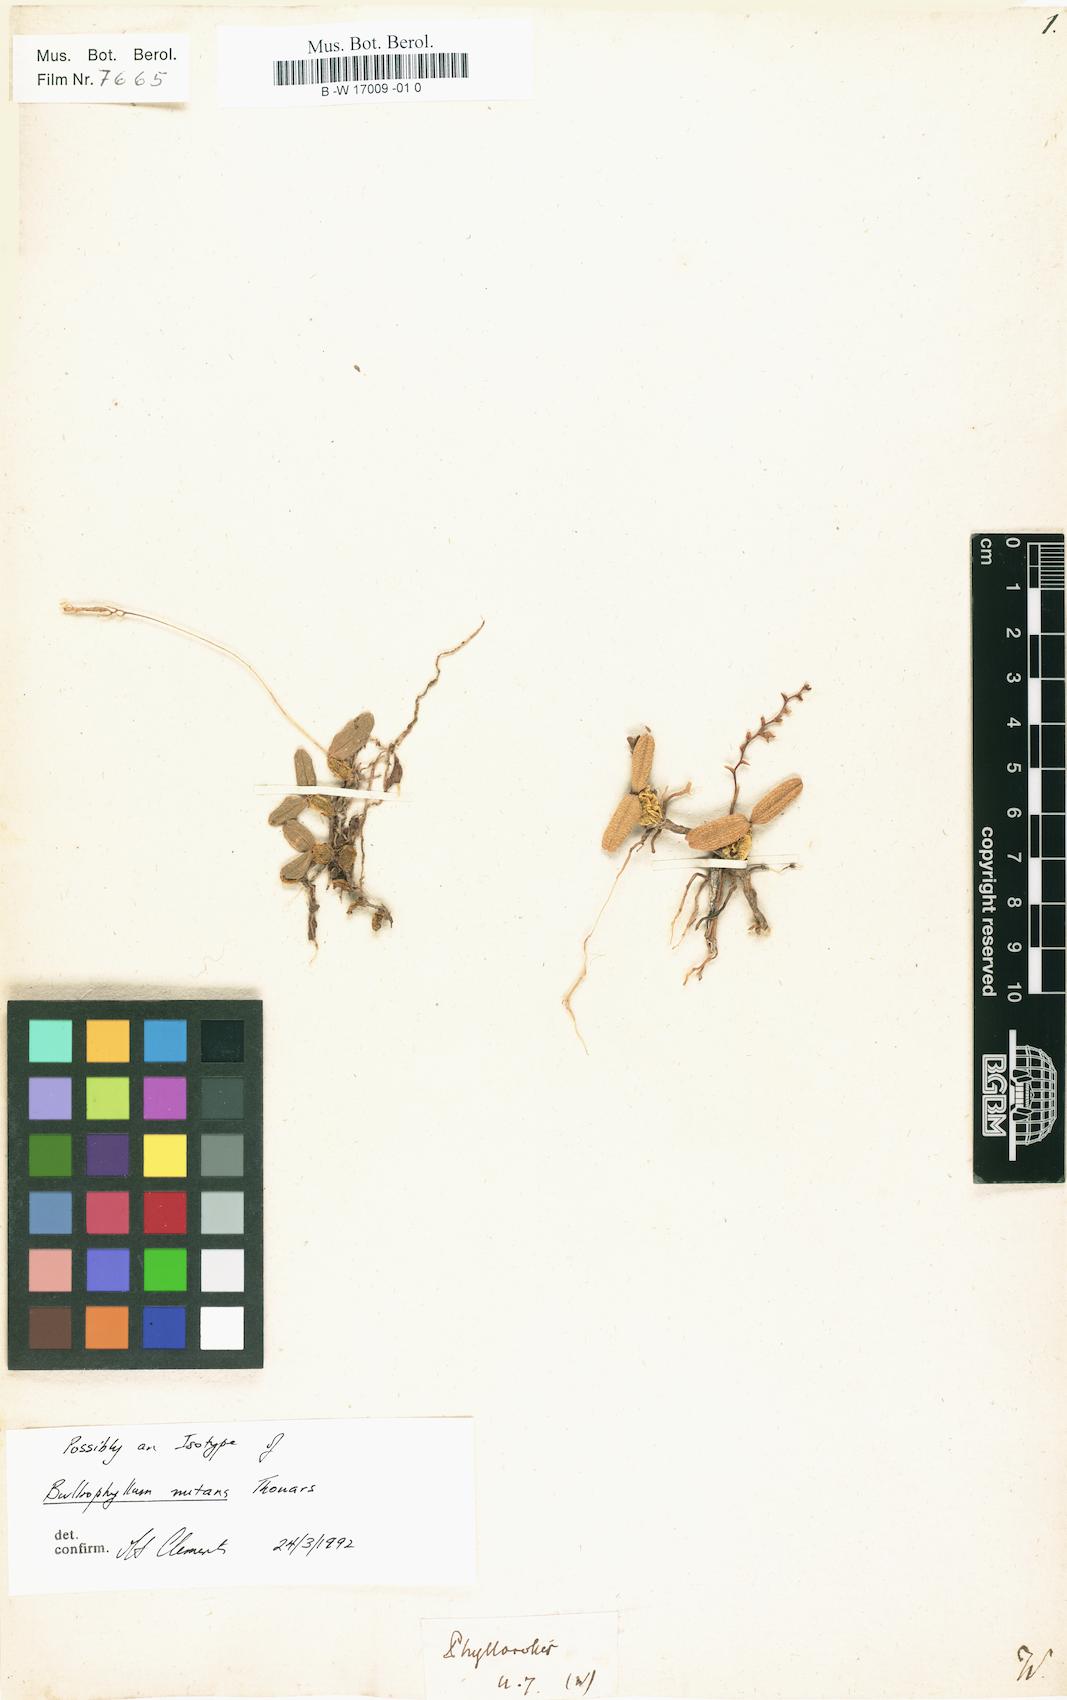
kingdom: Plantae
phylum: Tracheophyta
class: Liliopsida
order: Asparagales
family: Orchidaceae
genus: Phyllorchis
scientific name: Phyllorchis
